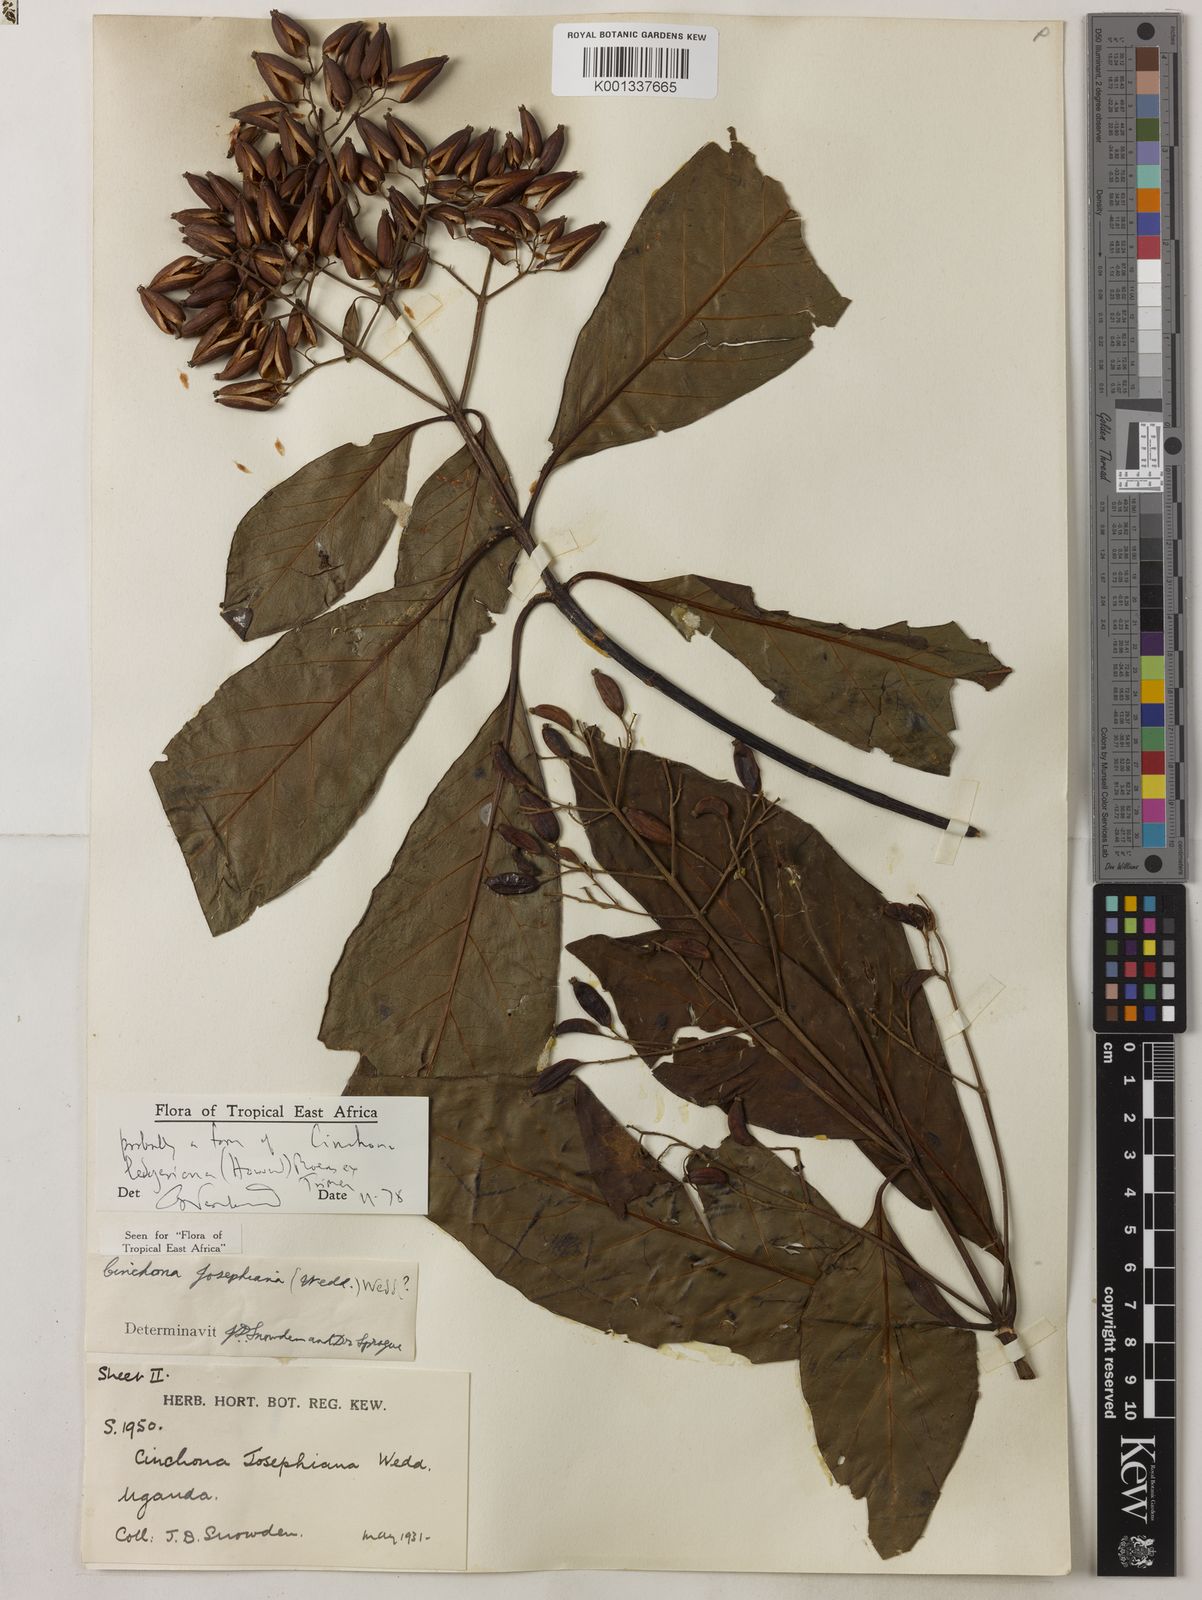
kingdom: Plantae
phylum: Tracheophyta
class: Magnoliopsida
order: Gentianales
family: Rubiaceae
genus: Cinchona
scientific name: Cinchona calisaya
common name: Ledgerbark
